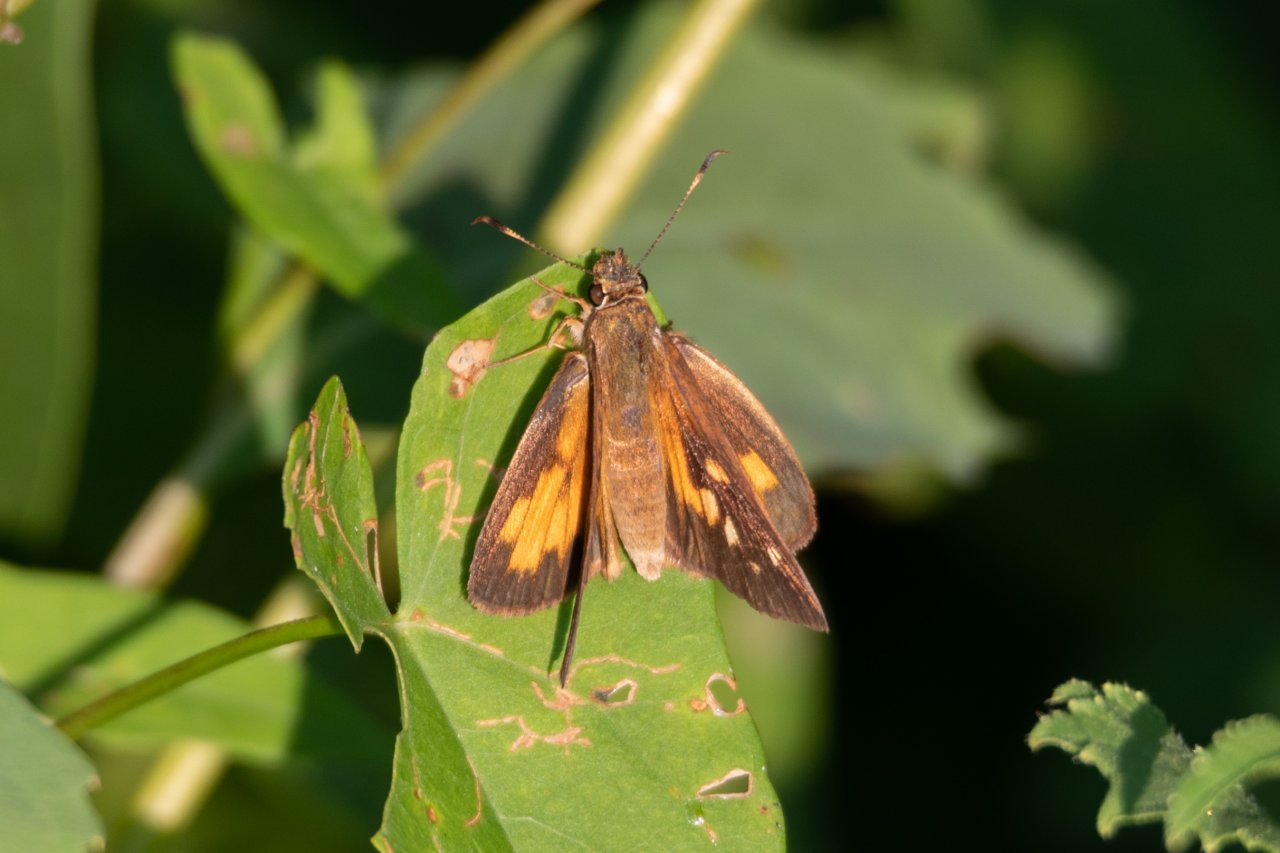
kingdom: Animalia
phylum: Arthropoda
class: Insecta
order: Lepidoptera
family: Hesperiidae
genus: Poanes
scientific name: Poanes viator
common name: Broad-winged Skipper
